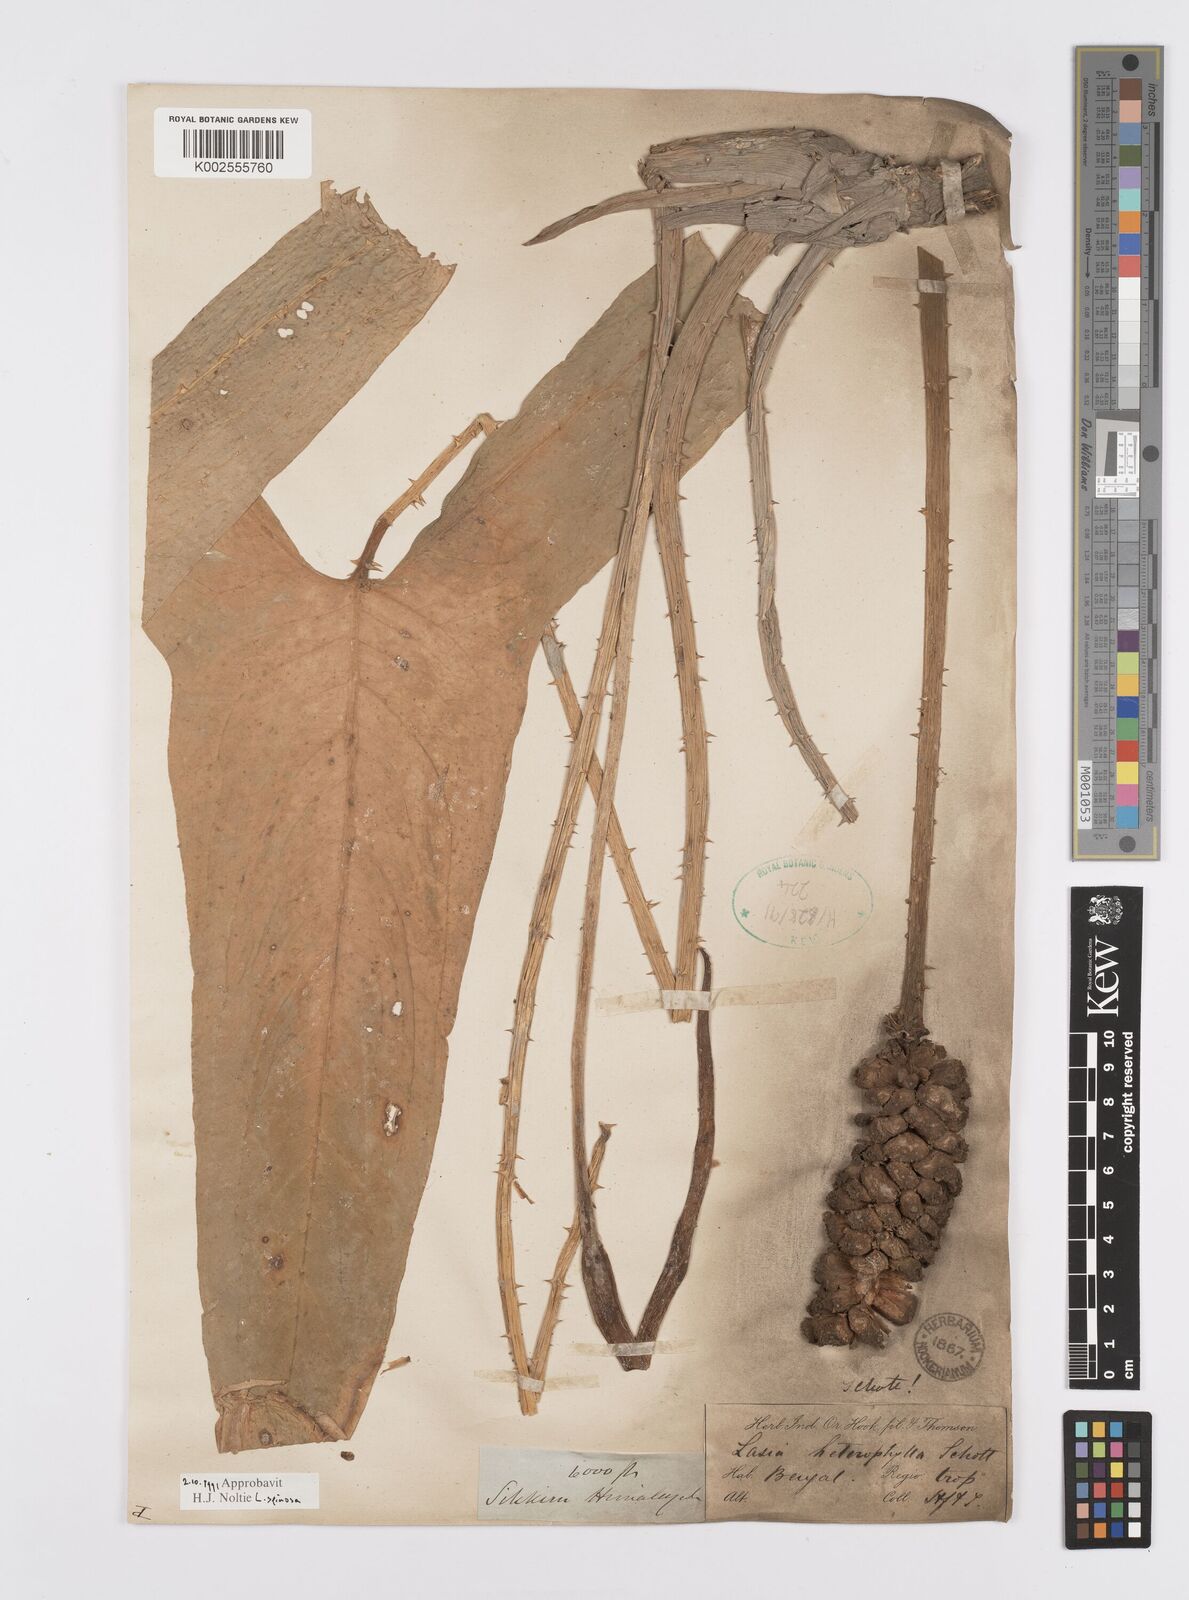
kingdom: Plantae
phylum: Tracheophyta
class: Liliopsida
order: Alismatales
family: Araceae
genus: Lasia
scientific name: Lasia spinosa
